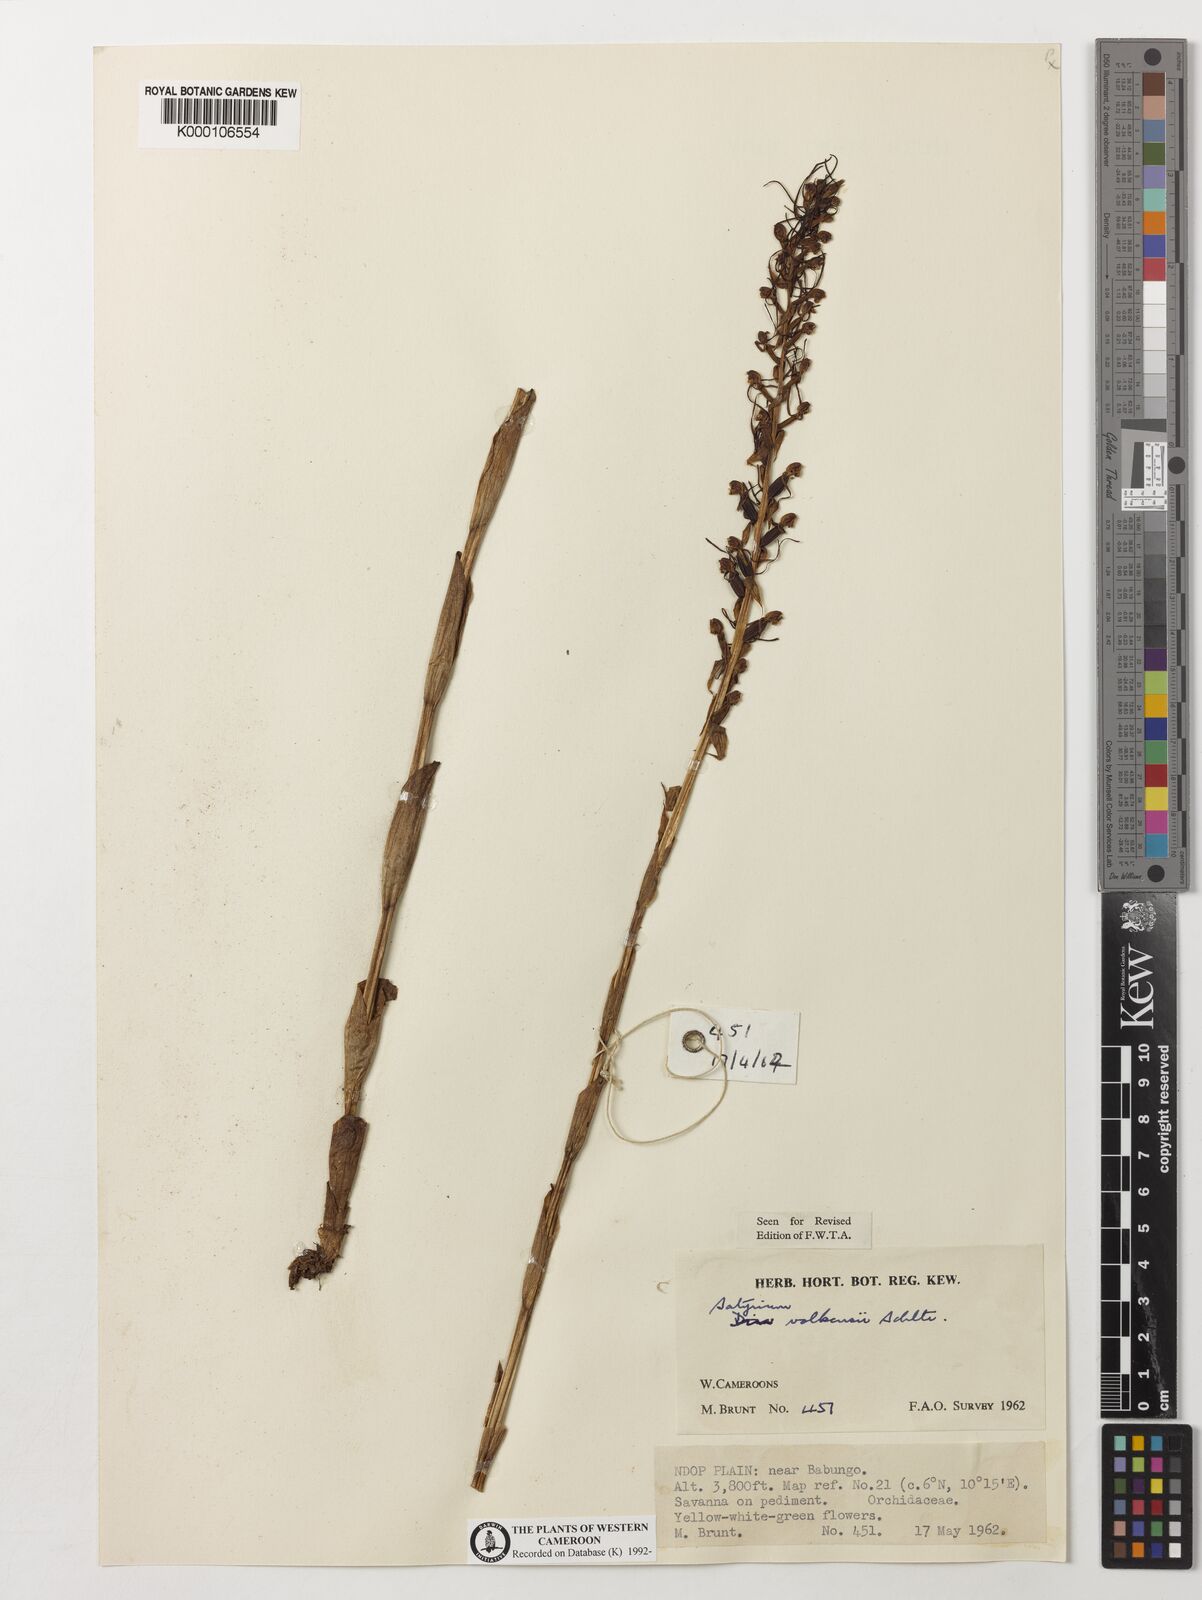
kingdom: Plantae
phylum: Tracheophyta
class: Liliopsida
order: Asparagales
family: Orchidaceae
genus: Satyrium
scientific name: Satyrium volkensii
